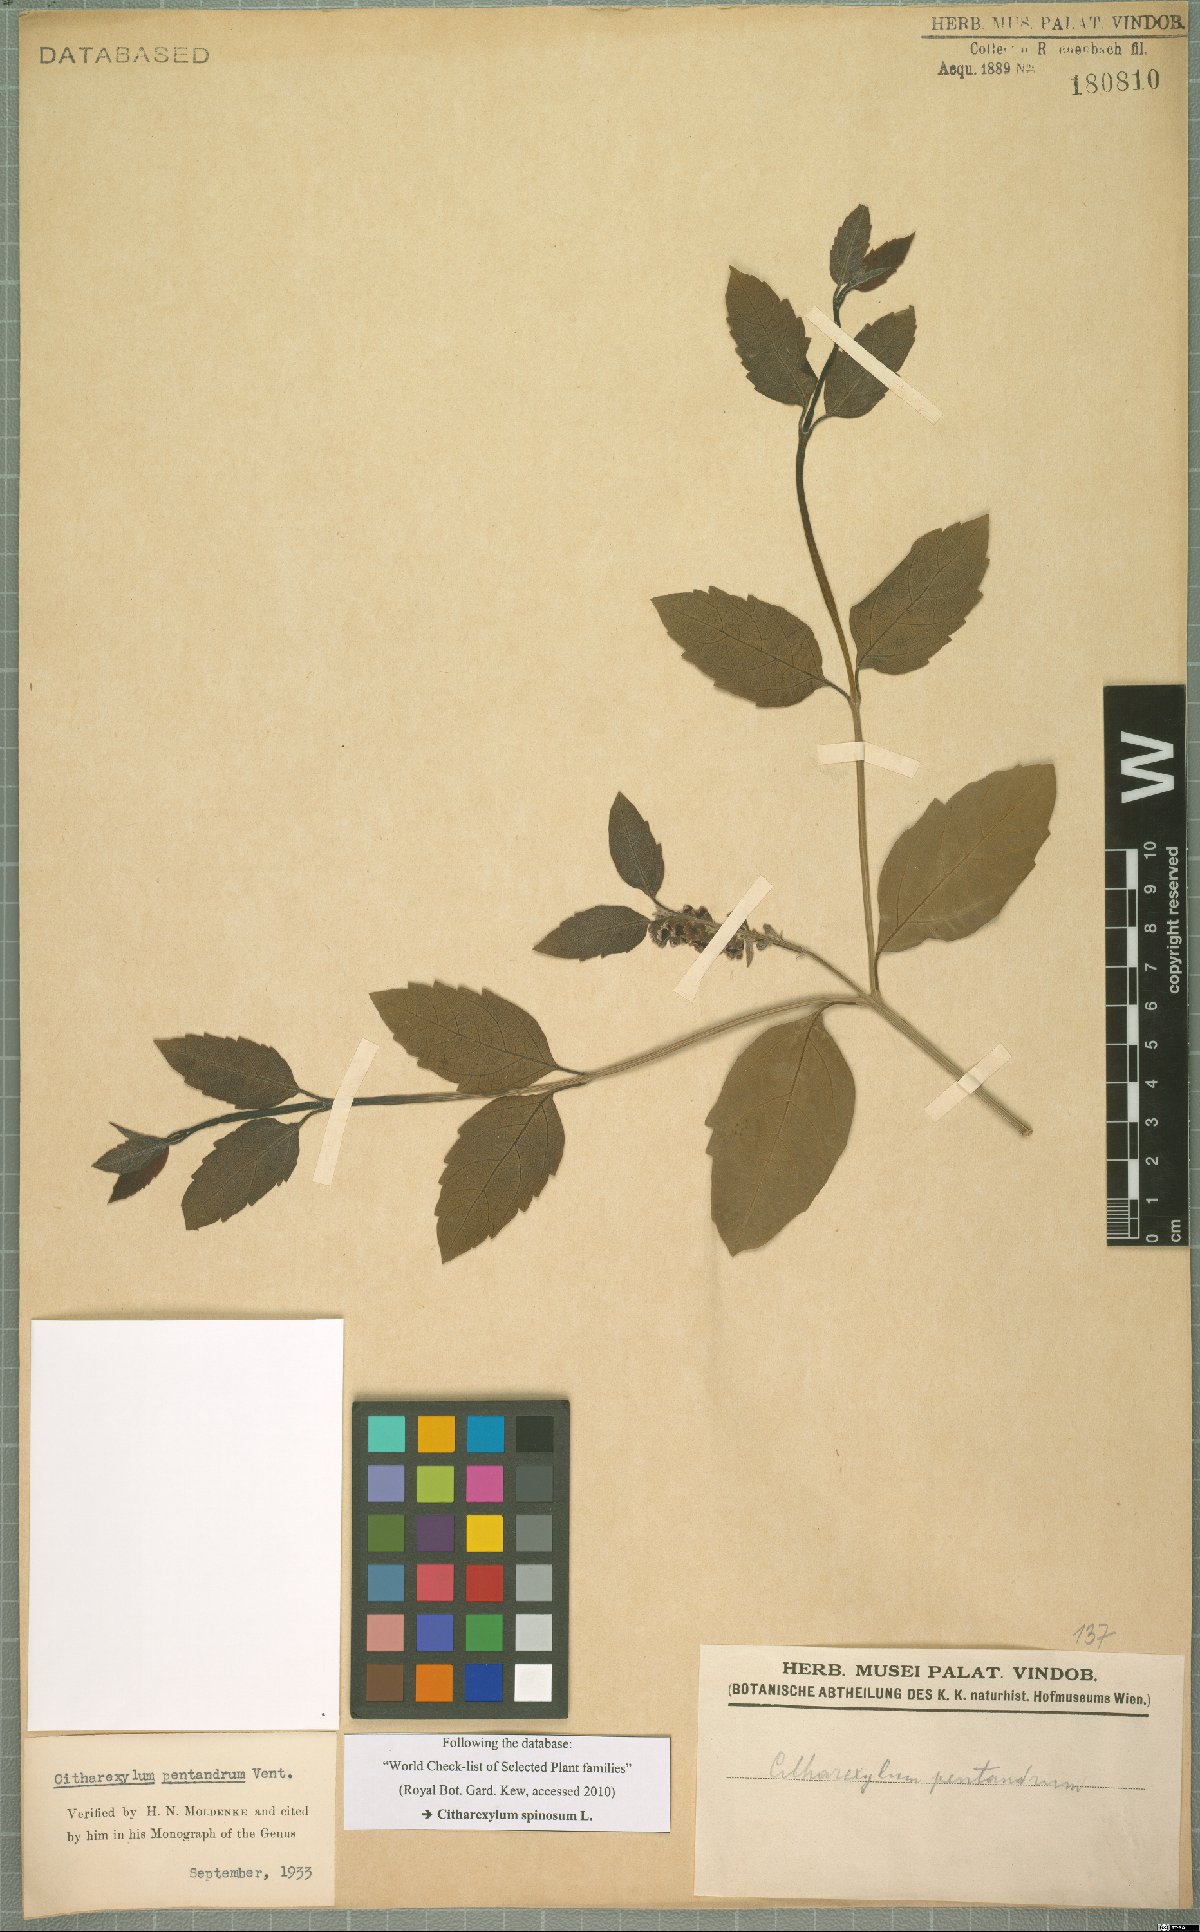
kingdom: Plantae
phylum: Tracheophyta
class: Magnoliopsida
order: Lamiales
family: Verbenaceae
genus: Citharexylum
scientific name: Citharexylum spinosum
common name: Fiddlewood
